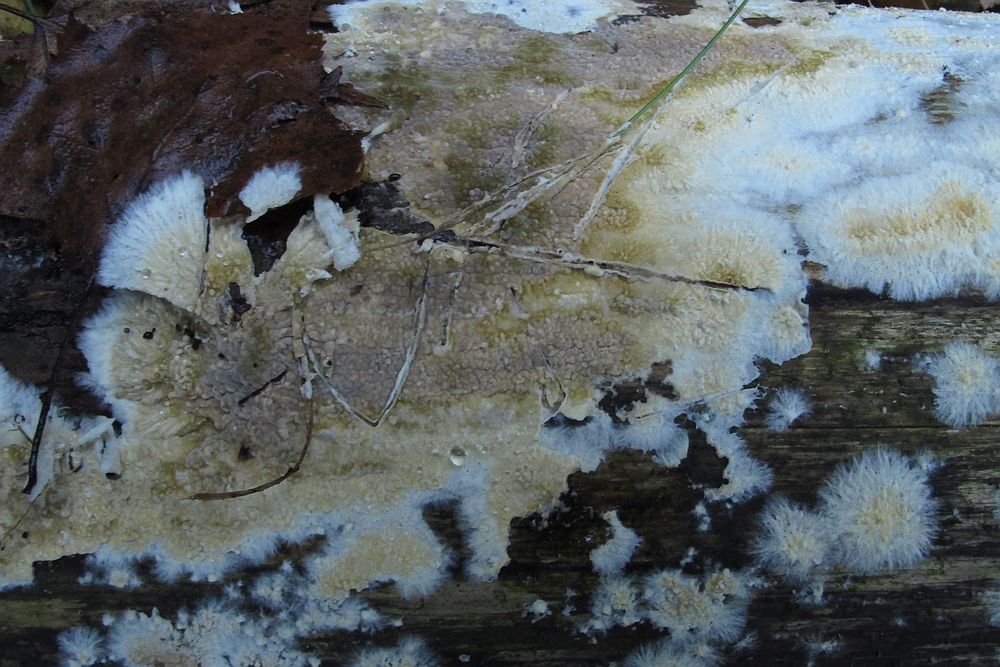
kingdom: Fungi
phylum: Basidiomycota
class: Agaricomycetes
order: Boletales
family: Coniophoraceae
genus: Coniophora
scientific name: Coniophora puteana
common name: gul tømmersvamp
